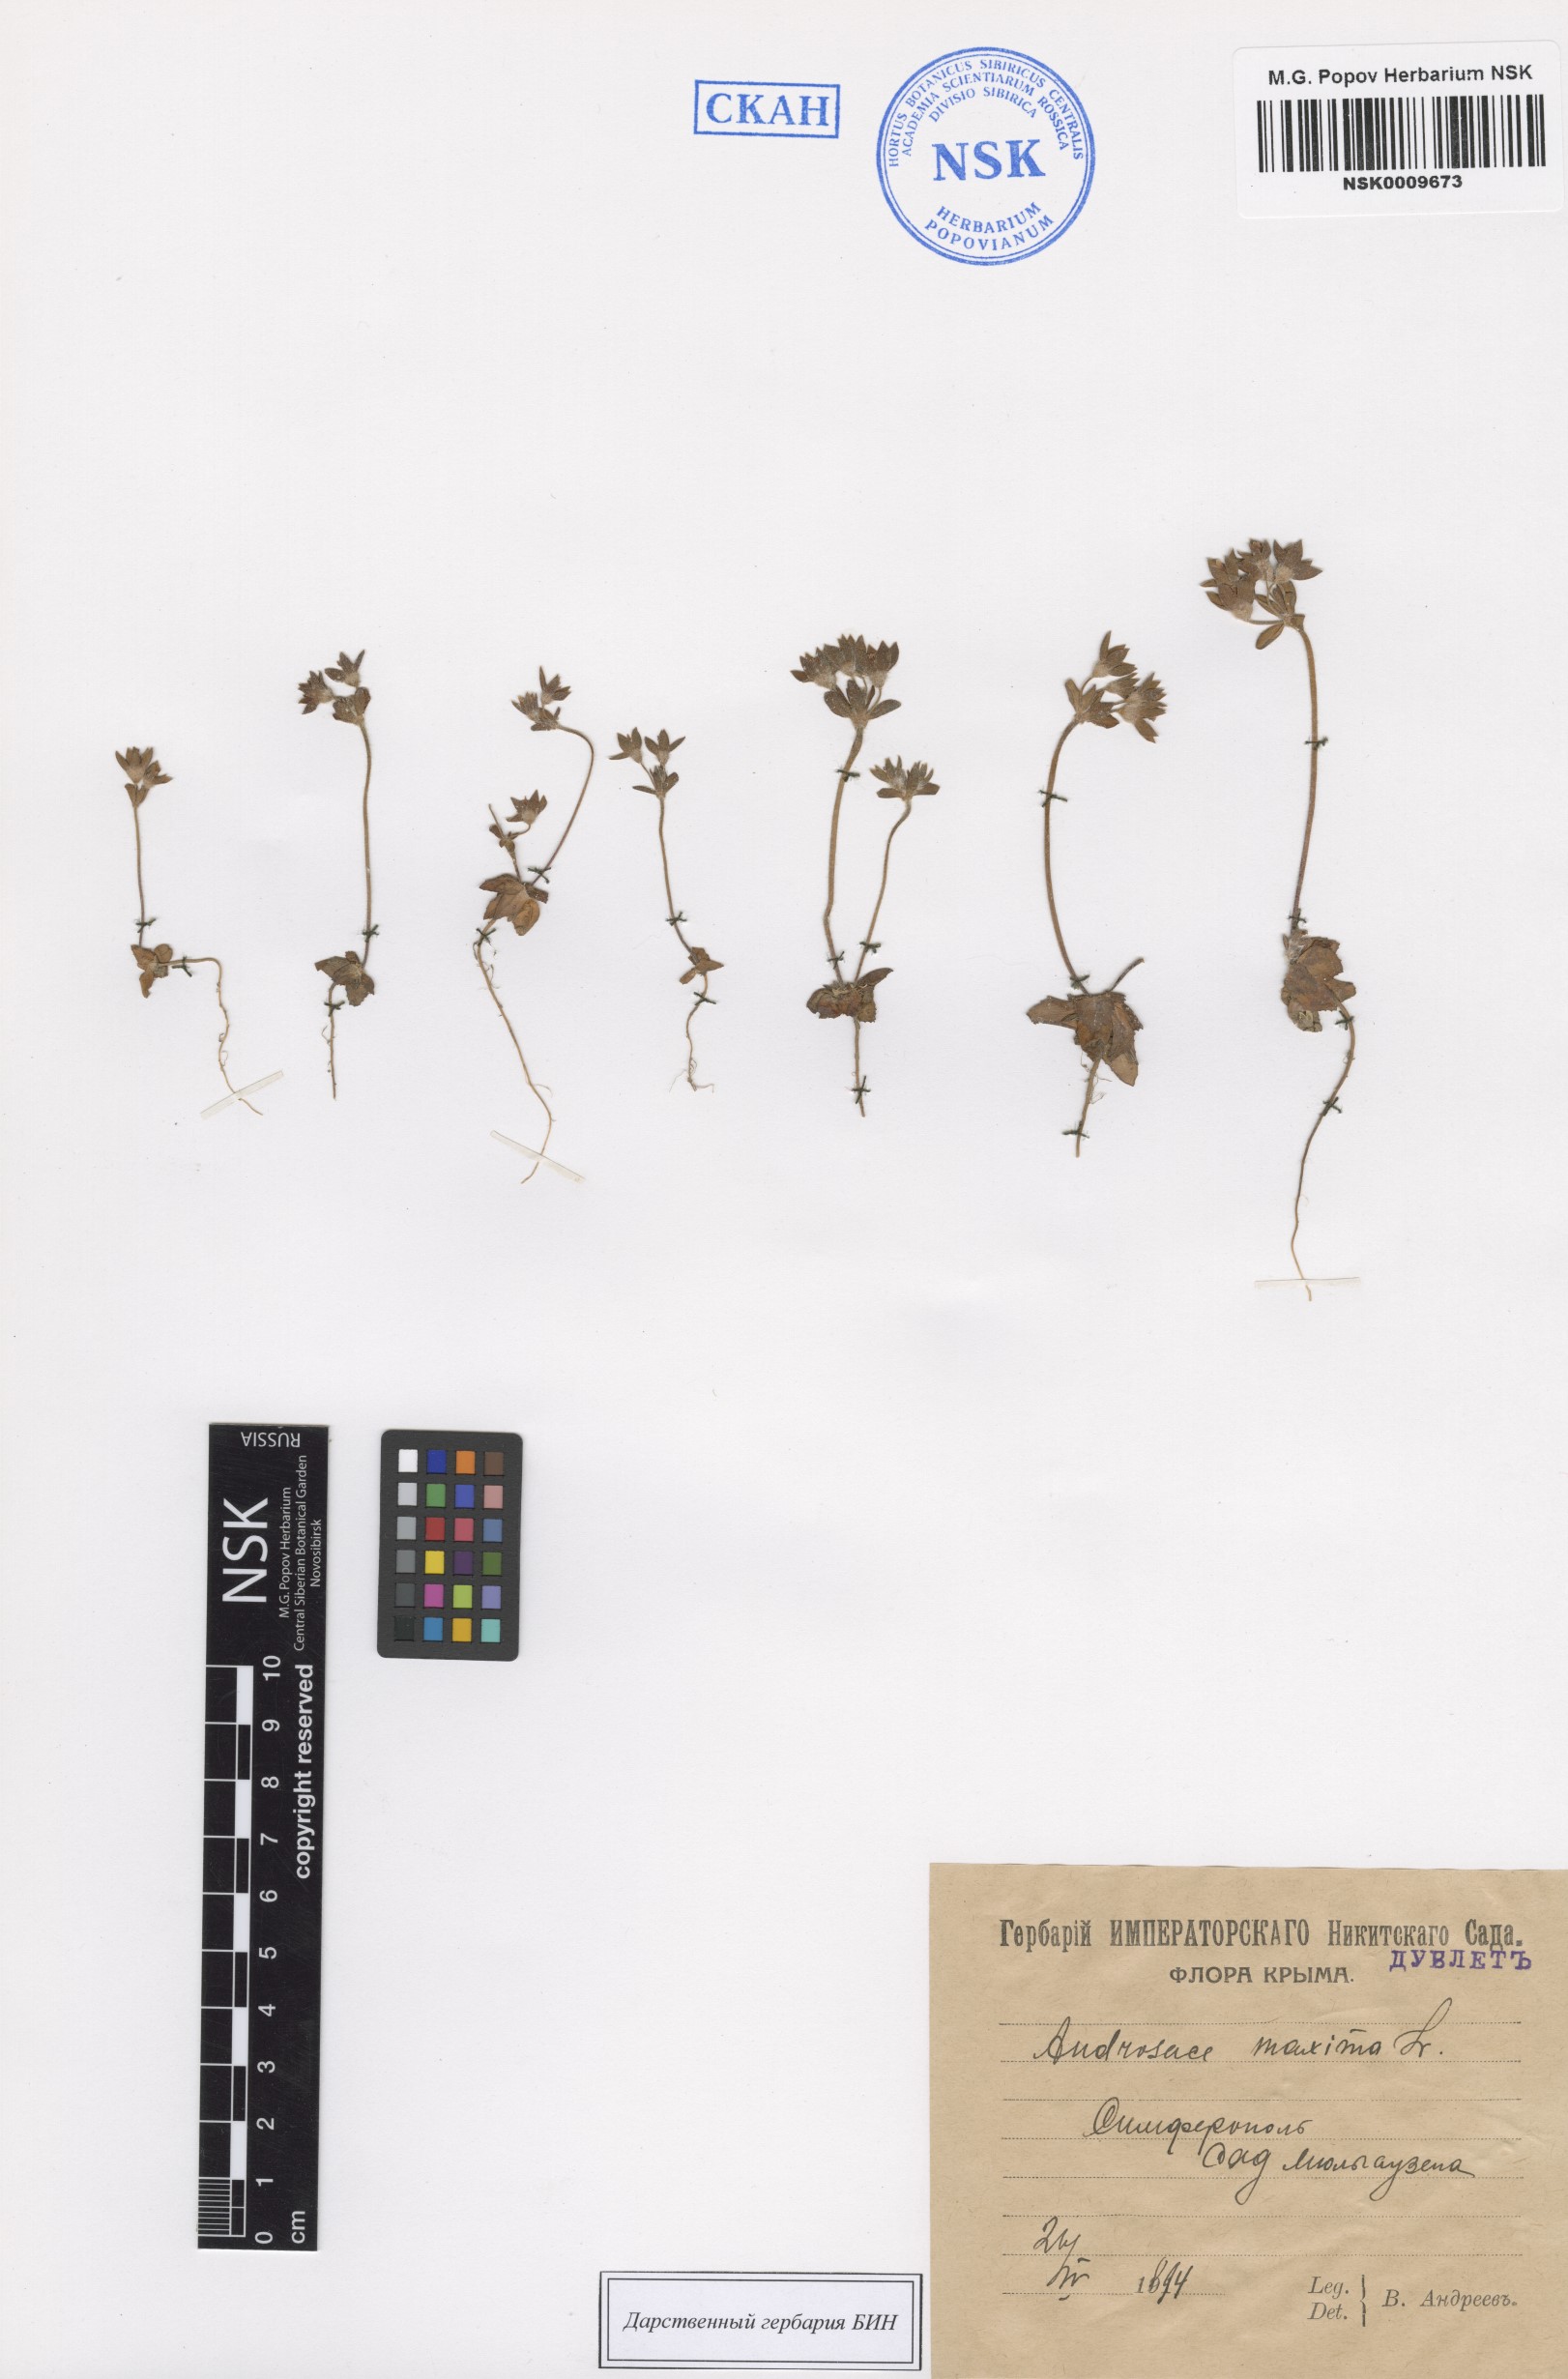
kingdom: Plantae
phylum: Tracheophyta
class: Magnoliopsida
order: Ericales
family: Primulaceae
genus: Androsace
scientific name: Androsace maxima
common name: Annual androsace
